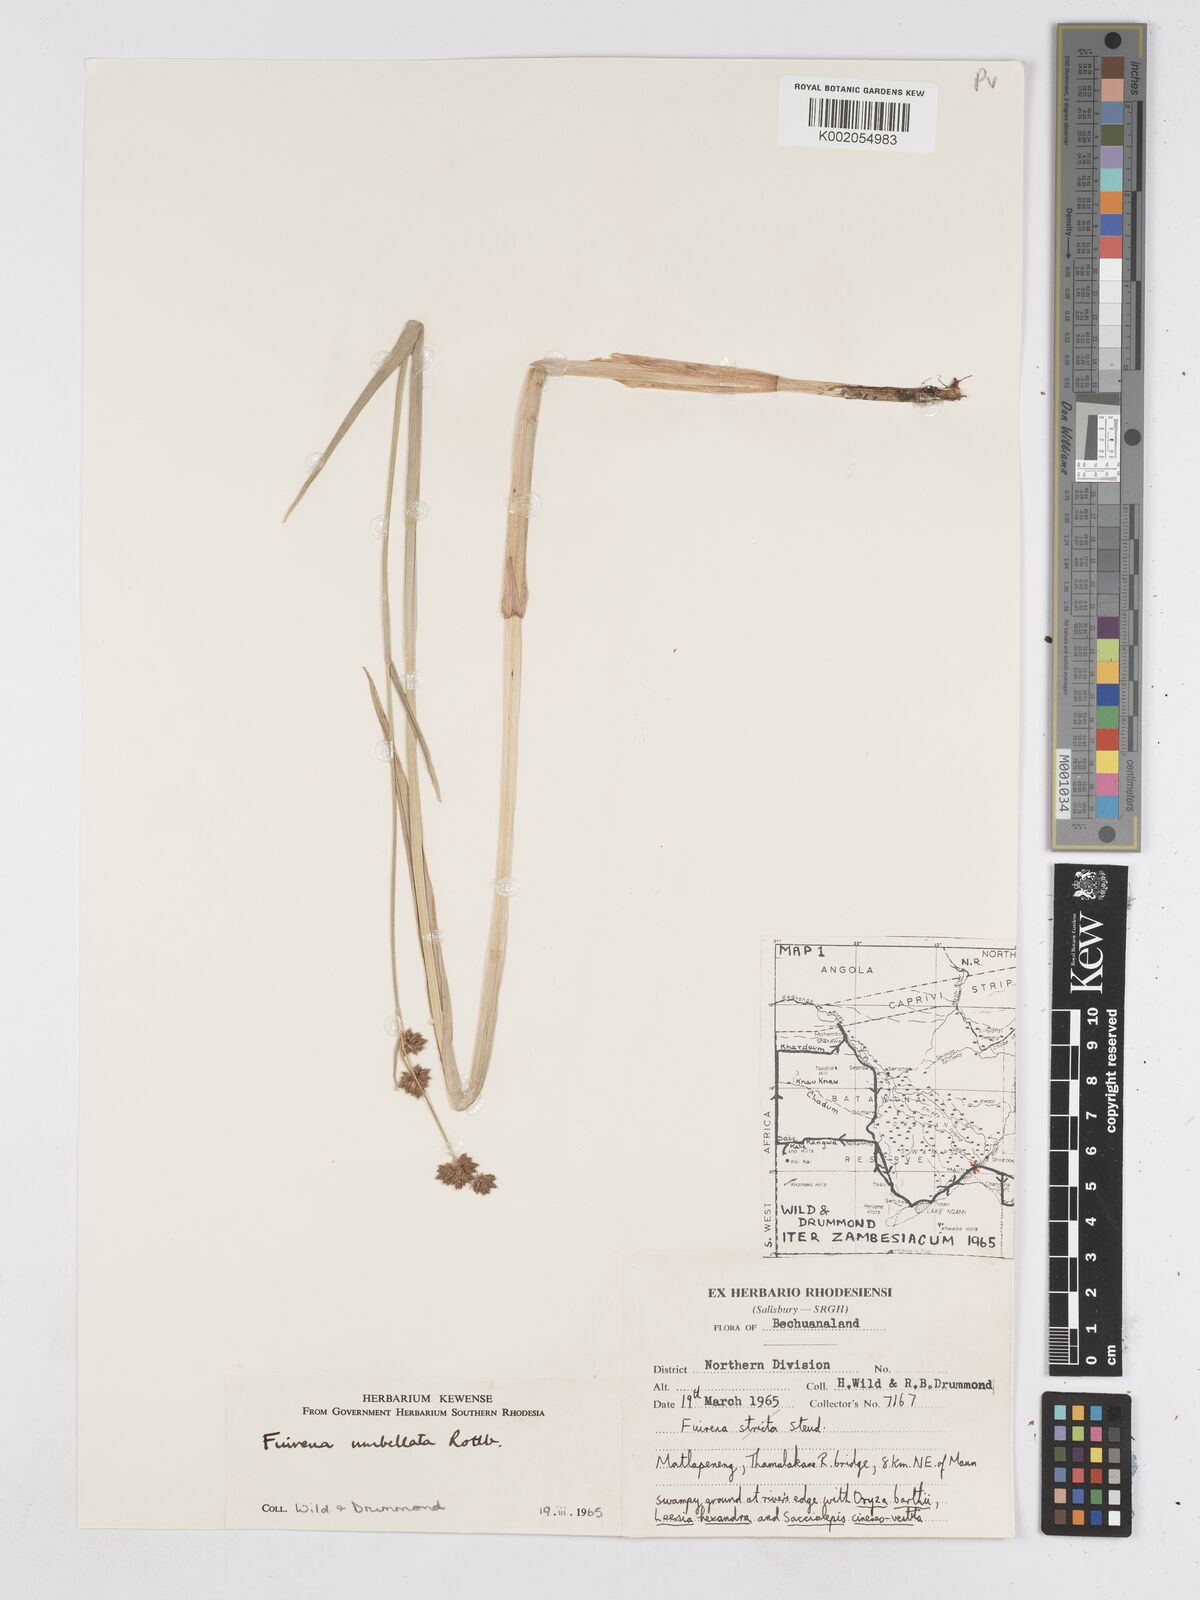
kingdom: Plantae
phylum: Tracheophyta
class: Liliopsida
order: Poales
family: Cyperaceae
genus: Fuirena
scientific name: Fuirena umbellata
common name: Yefen
